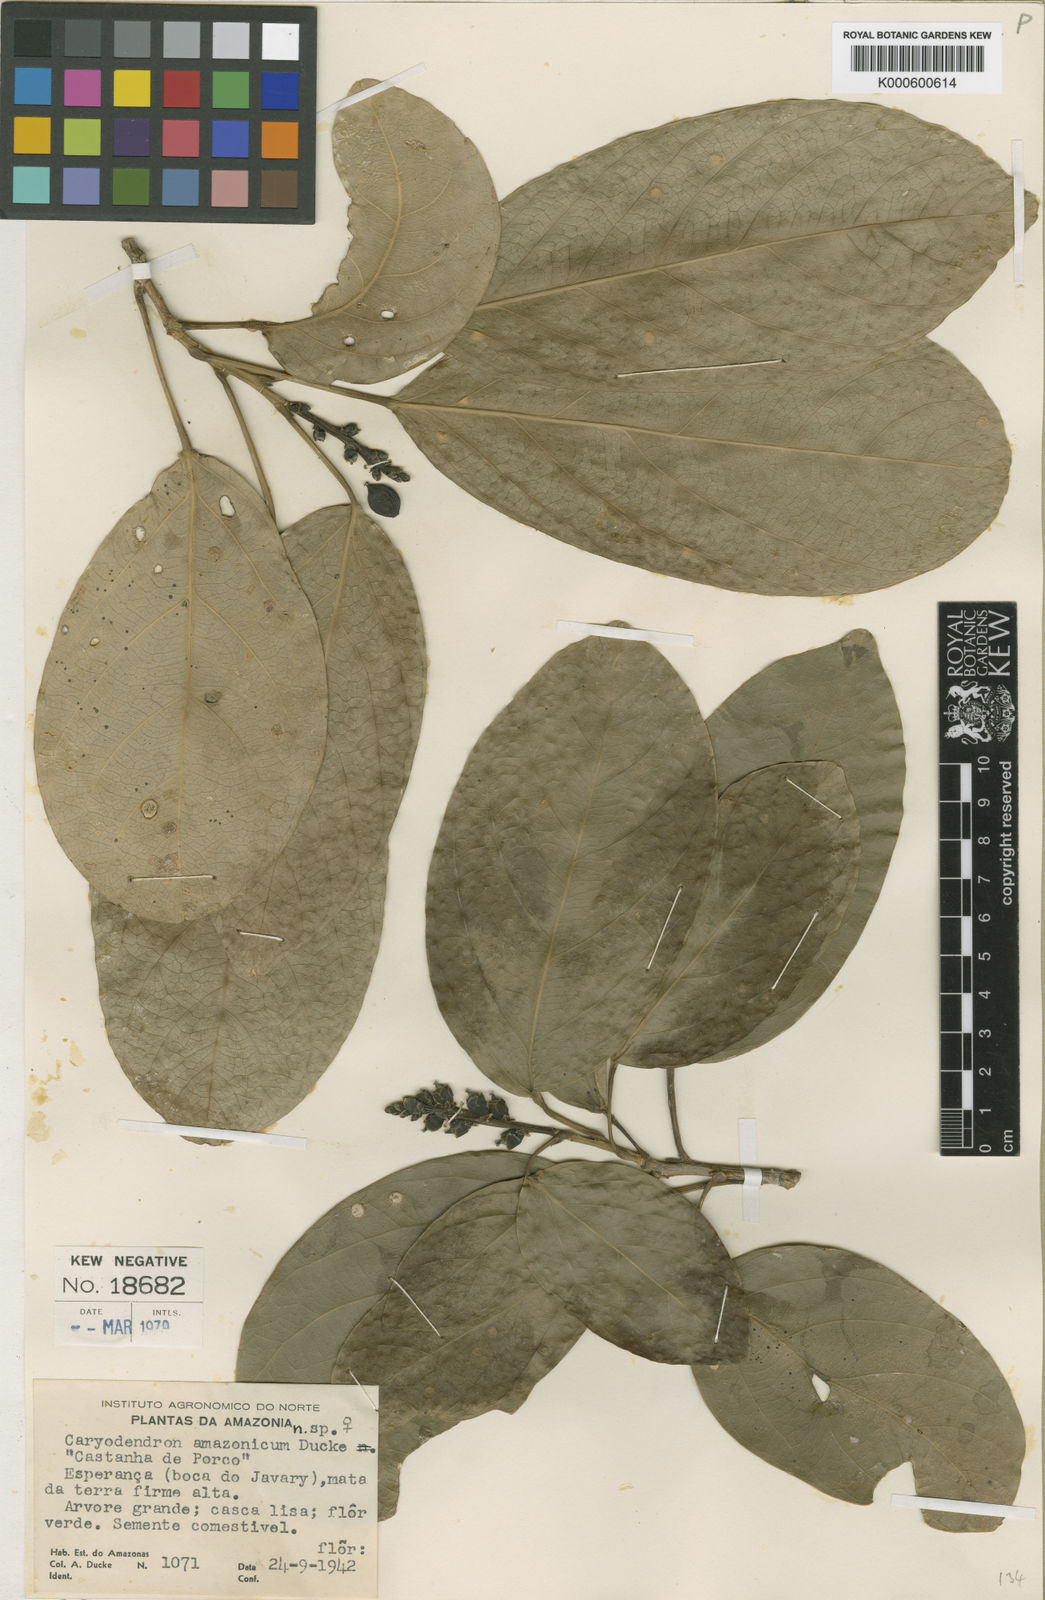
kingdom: Plantae
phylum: Tracheophyta
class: Magnoliopsida
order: Malpighiales
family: Euphorbiaceae
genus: Caryodendron
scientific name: Caryodendron amazonicum
